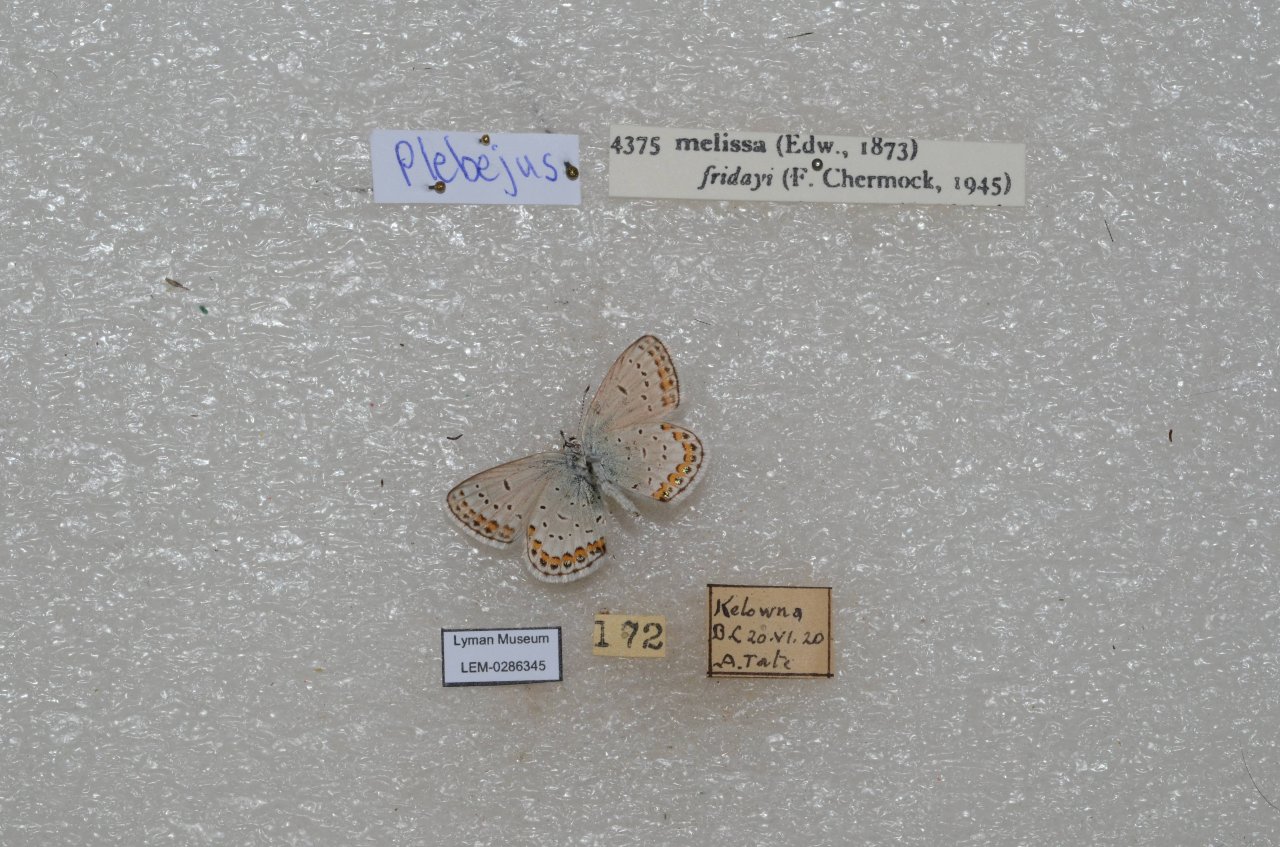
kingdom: Animalia
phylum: Arthropoda
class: Insecta
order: Lepidoptera
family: Nymphalidae
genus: Oeneis
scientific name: Oeneis melissa
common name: Melissa Arctic
